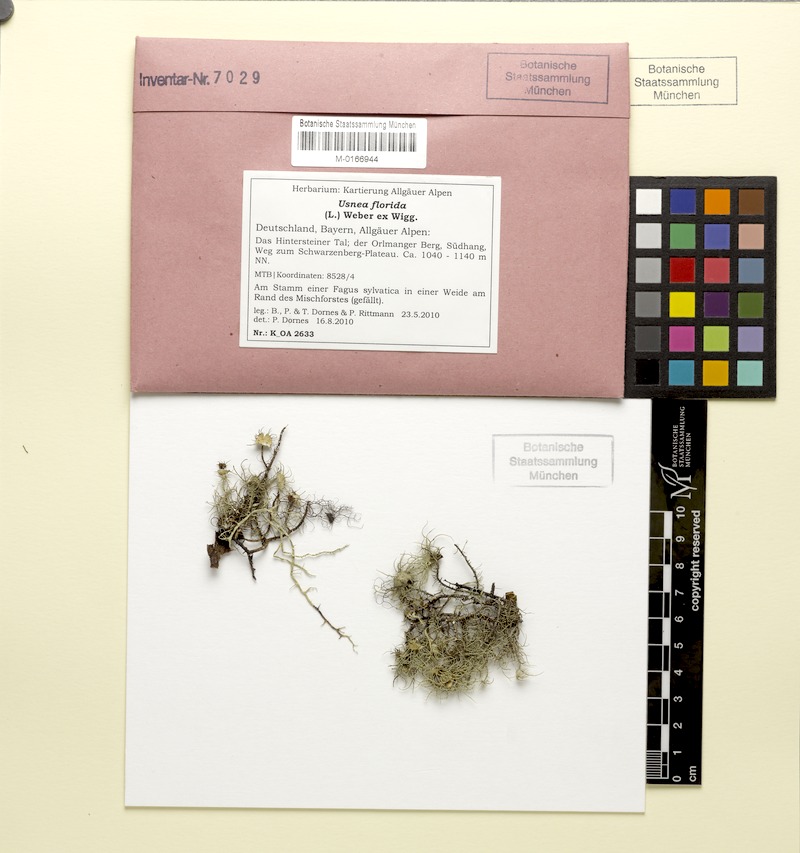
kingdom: Fungi
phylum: Ascomycota
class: Lecanoromycetes
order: Lecanorales
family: Parmeliaceae
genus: Usnea
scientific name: Usnea florida
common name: Witches' whiskers lichen
